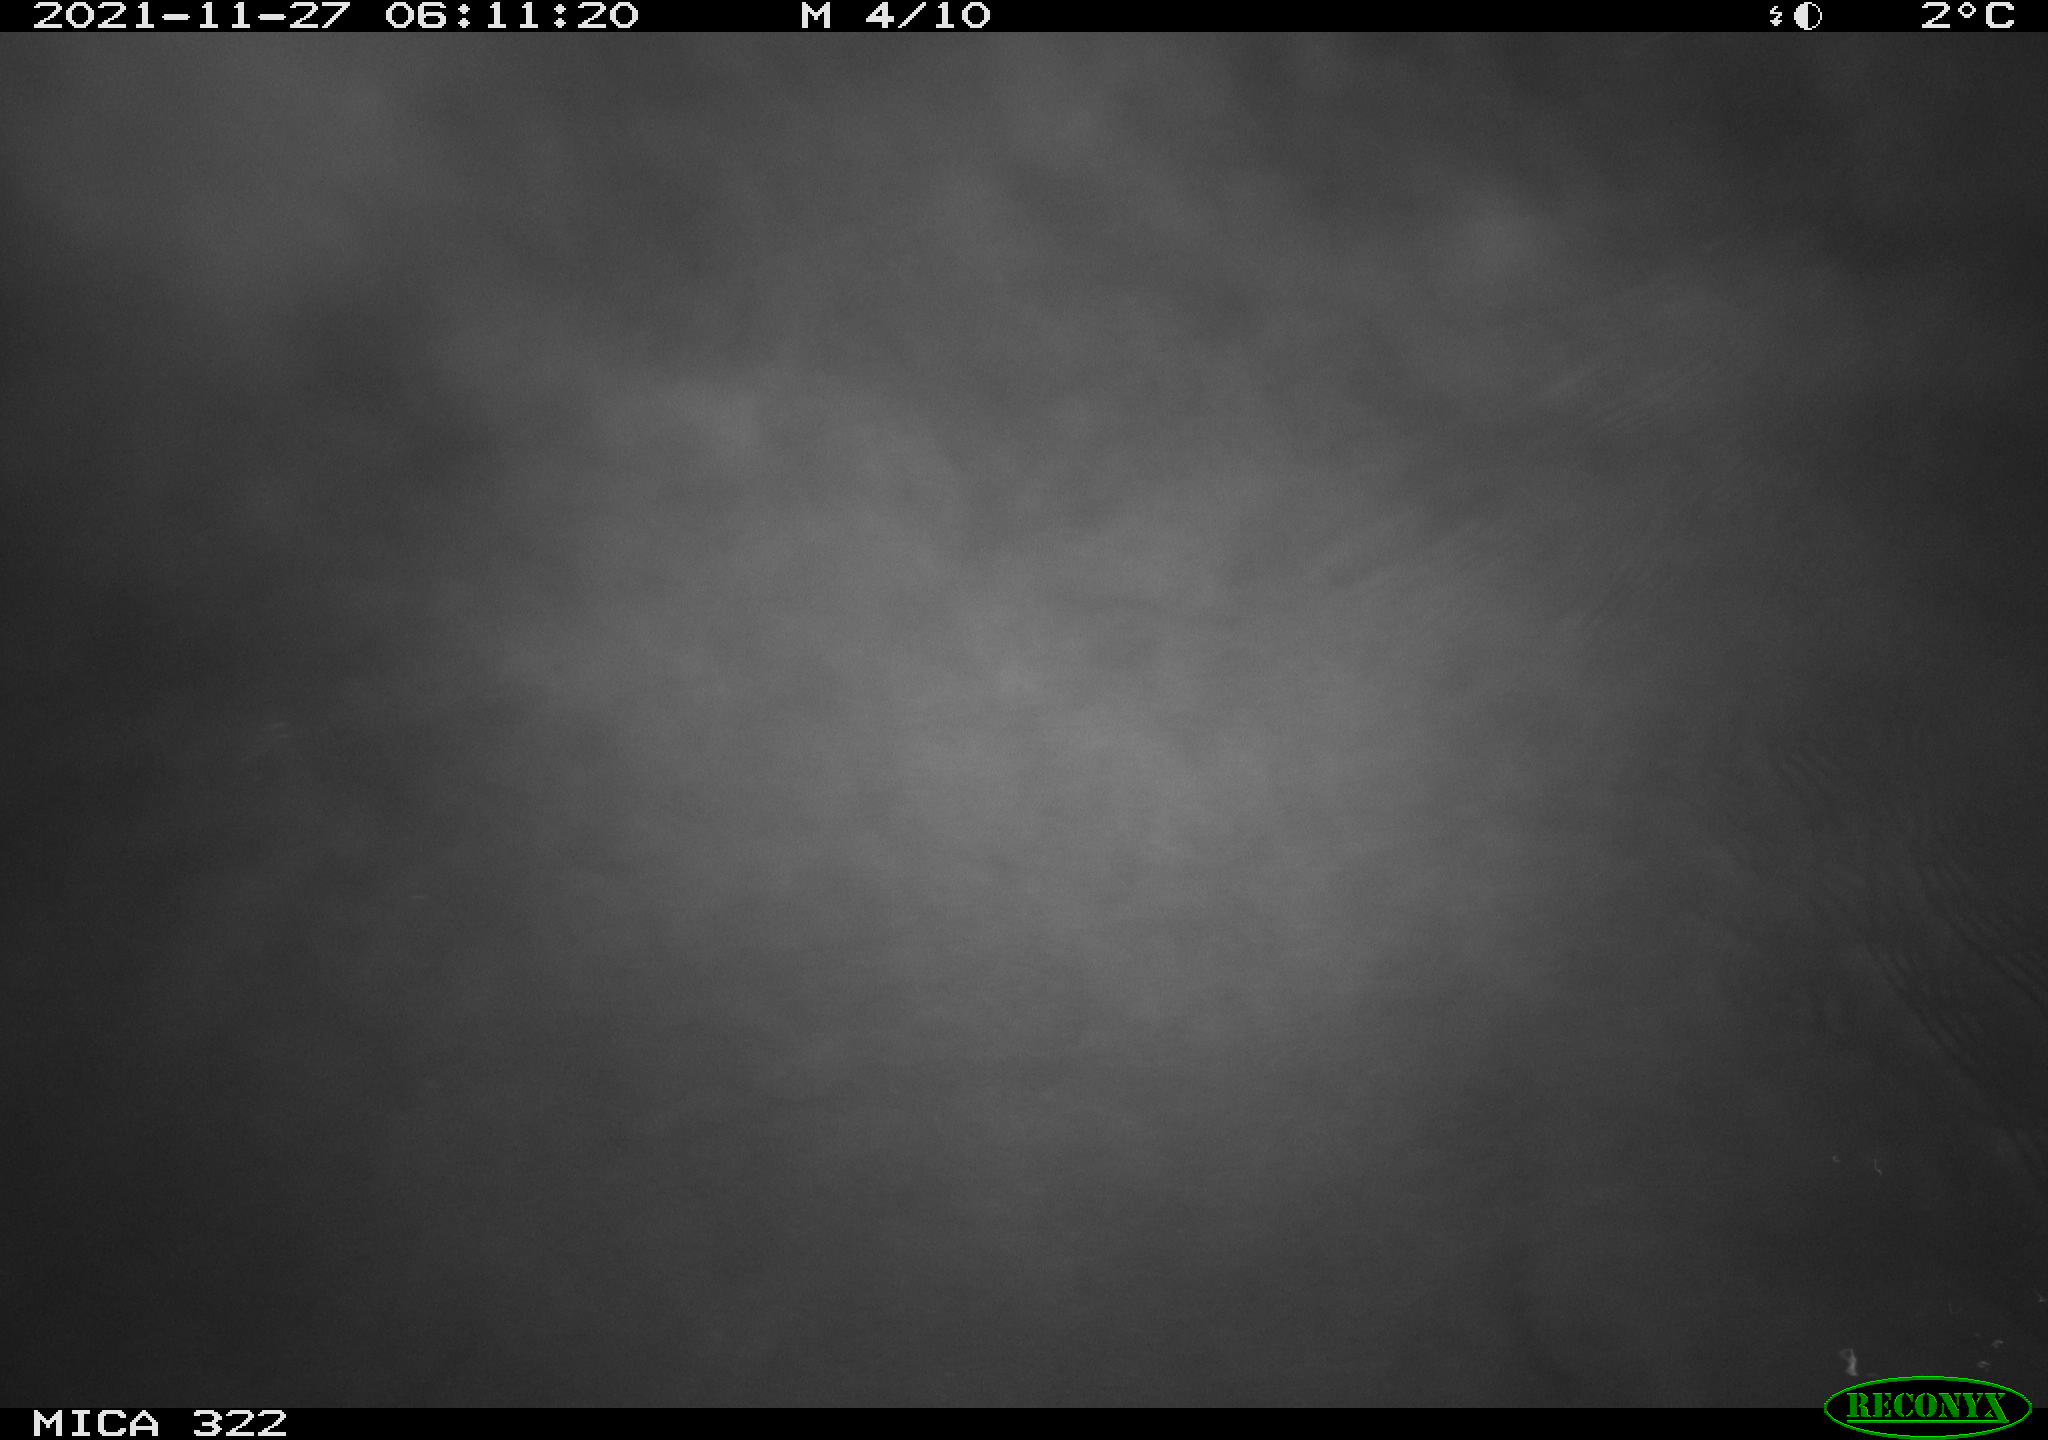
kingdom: Animalia
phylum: Chordata
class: Mammalia
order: Rodentia
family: Muridae
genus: Rattus
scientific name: Rattus norvegicus
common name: Brown rat
